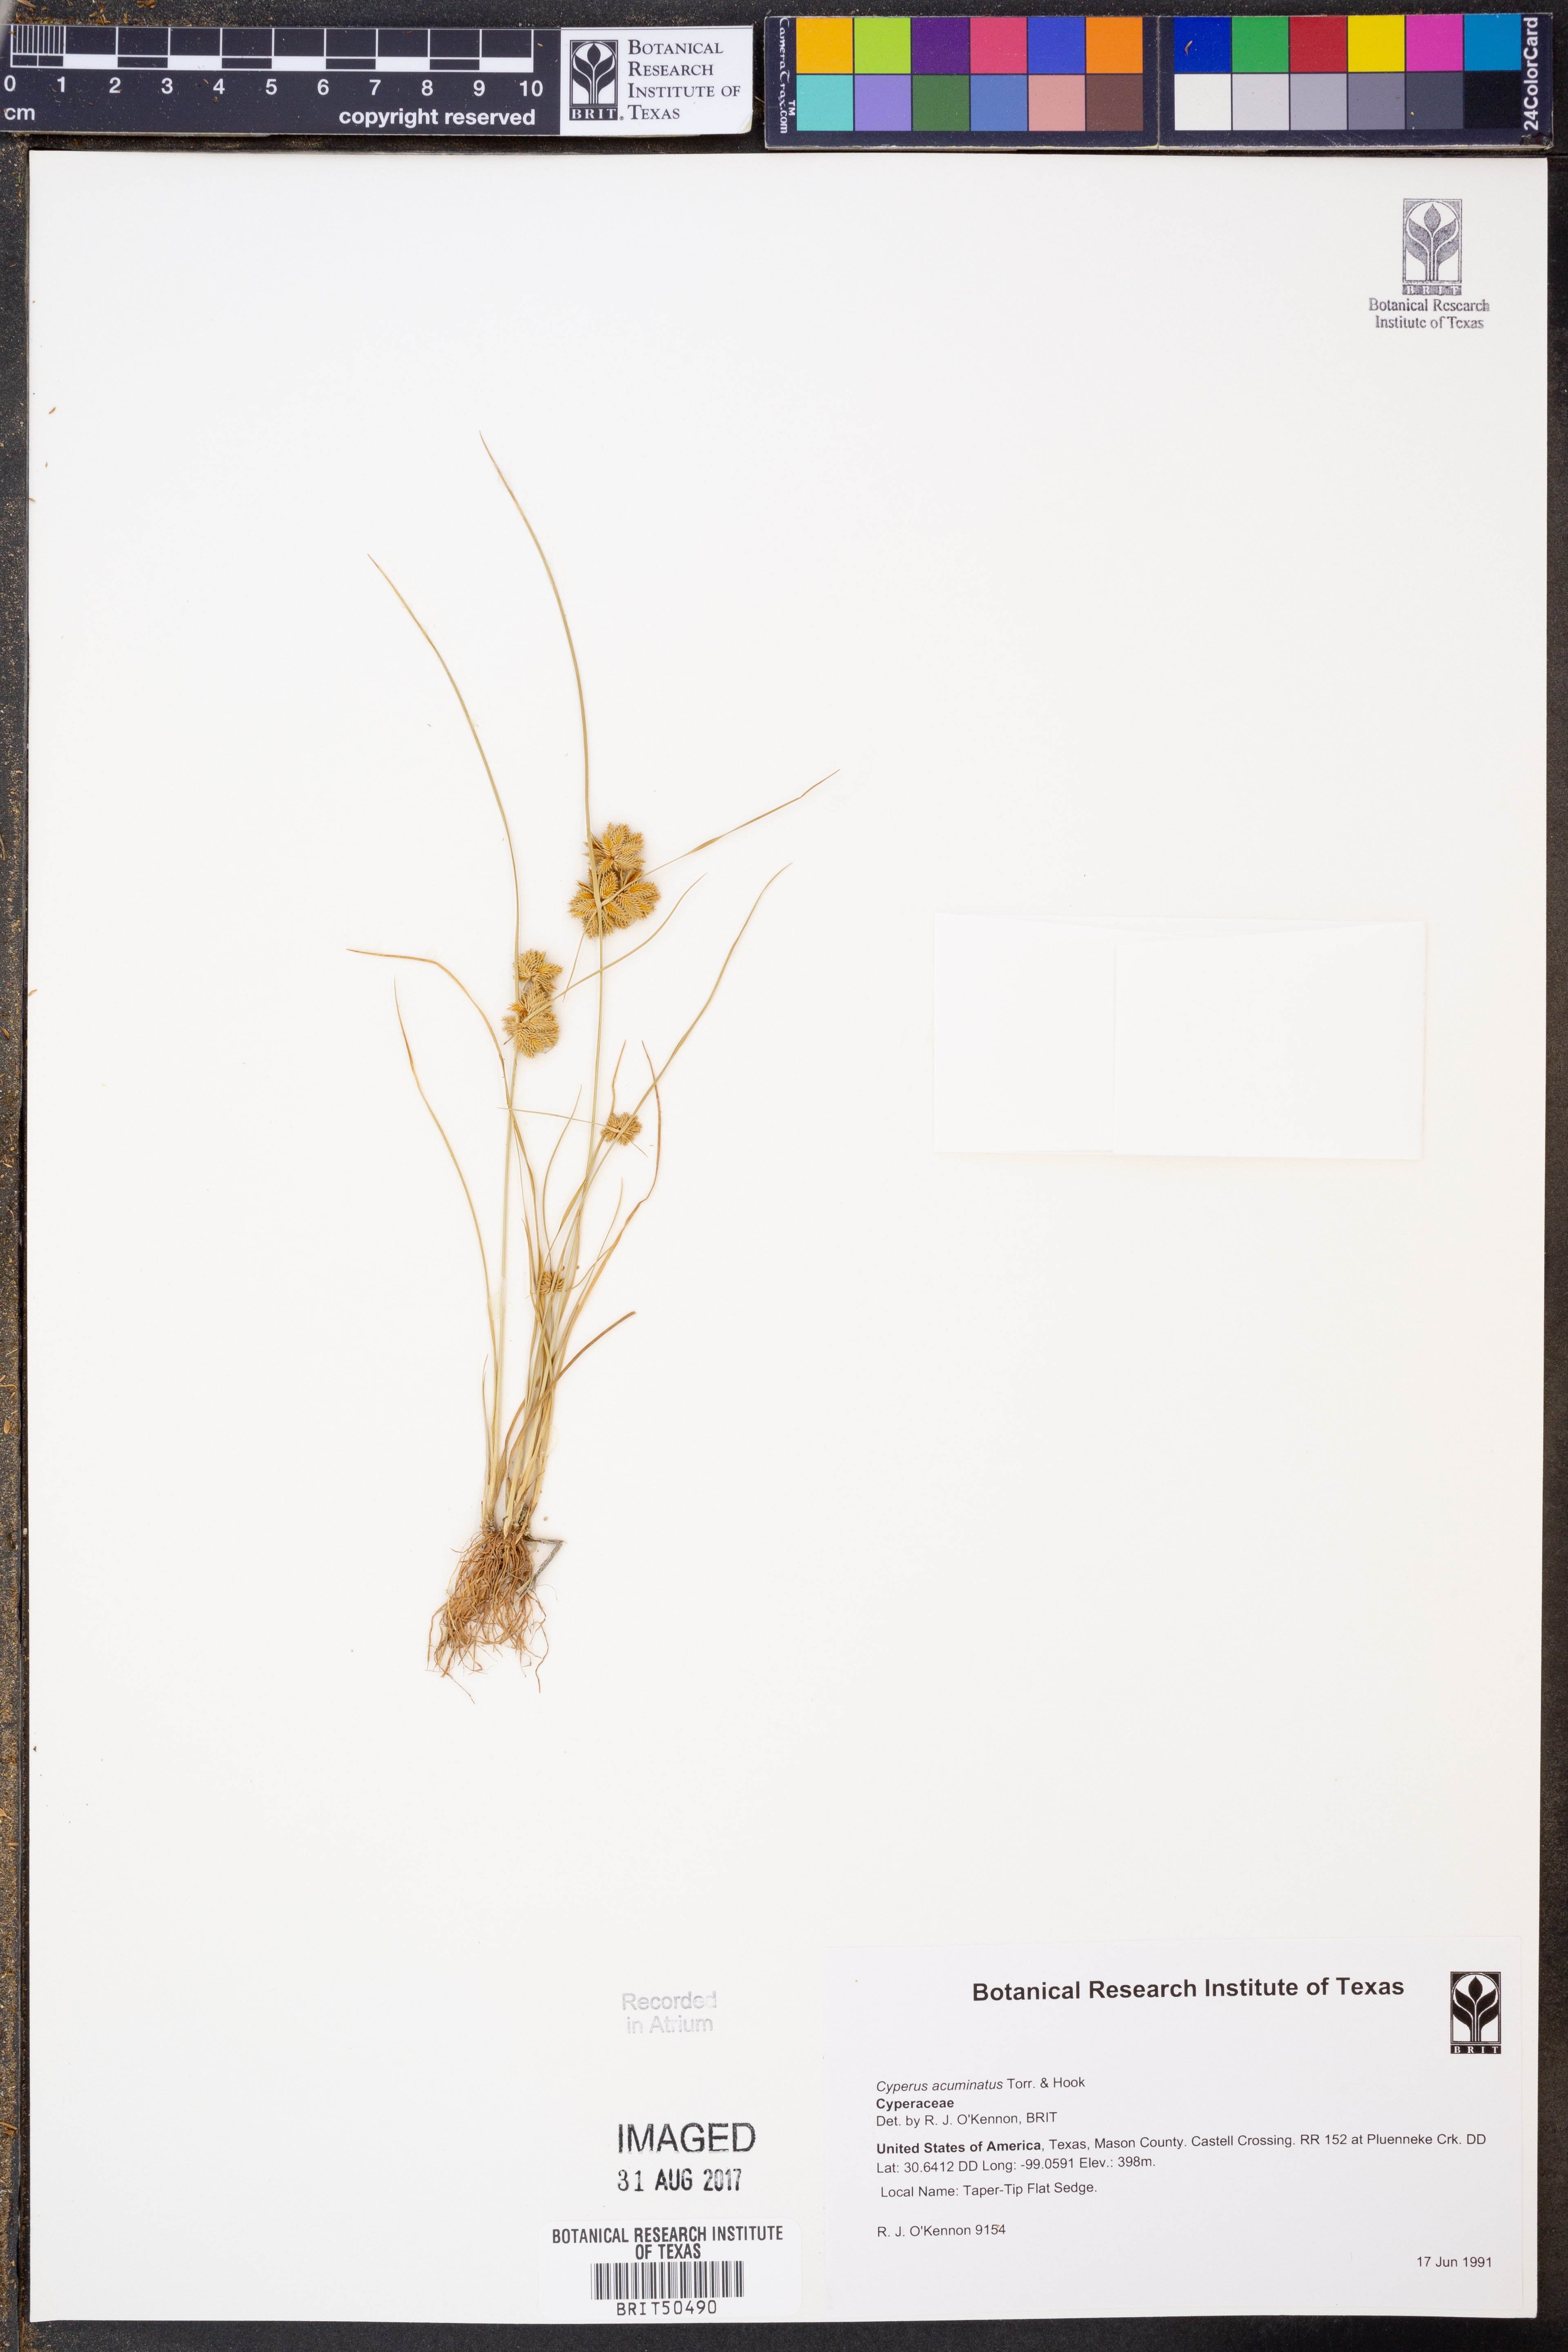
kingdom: Plantae
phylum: Tracheophyta
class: Liliopsida
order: Poales
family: Cyperaceae
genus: Cyperus
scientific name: Cyperus acuminatus
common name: Short-pointed cyperus
